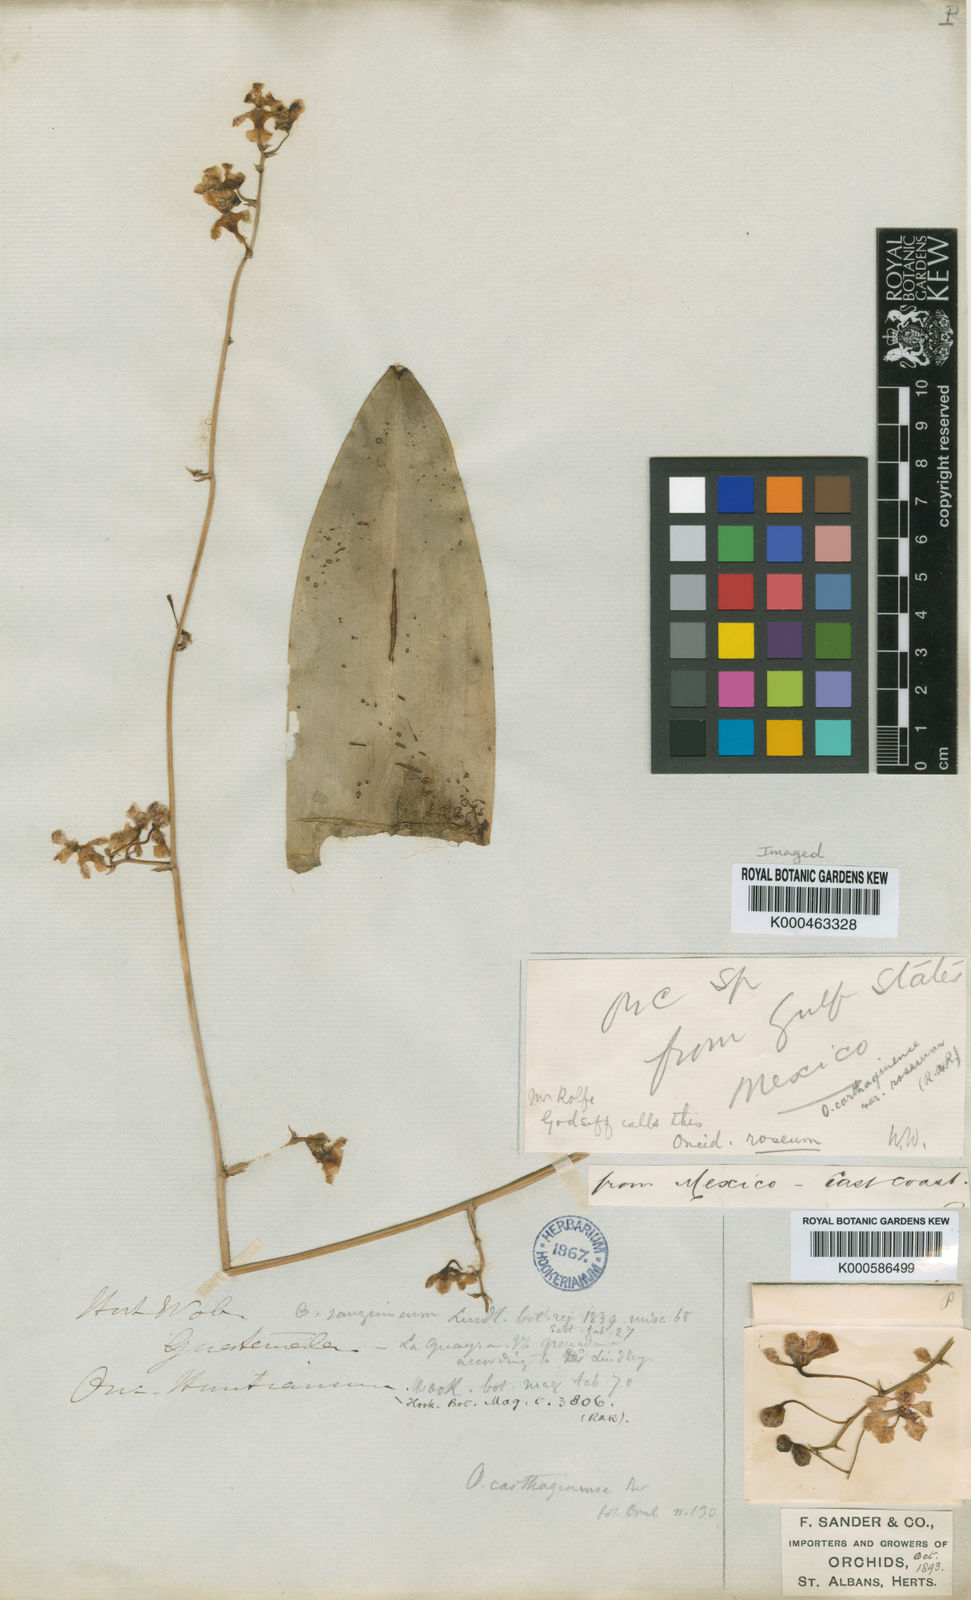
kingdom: Plantae
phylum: Tracheophyta
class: Liliopsida
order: Asparagales
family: Orchidaceae
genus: Oncidium
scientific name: Oncidium
